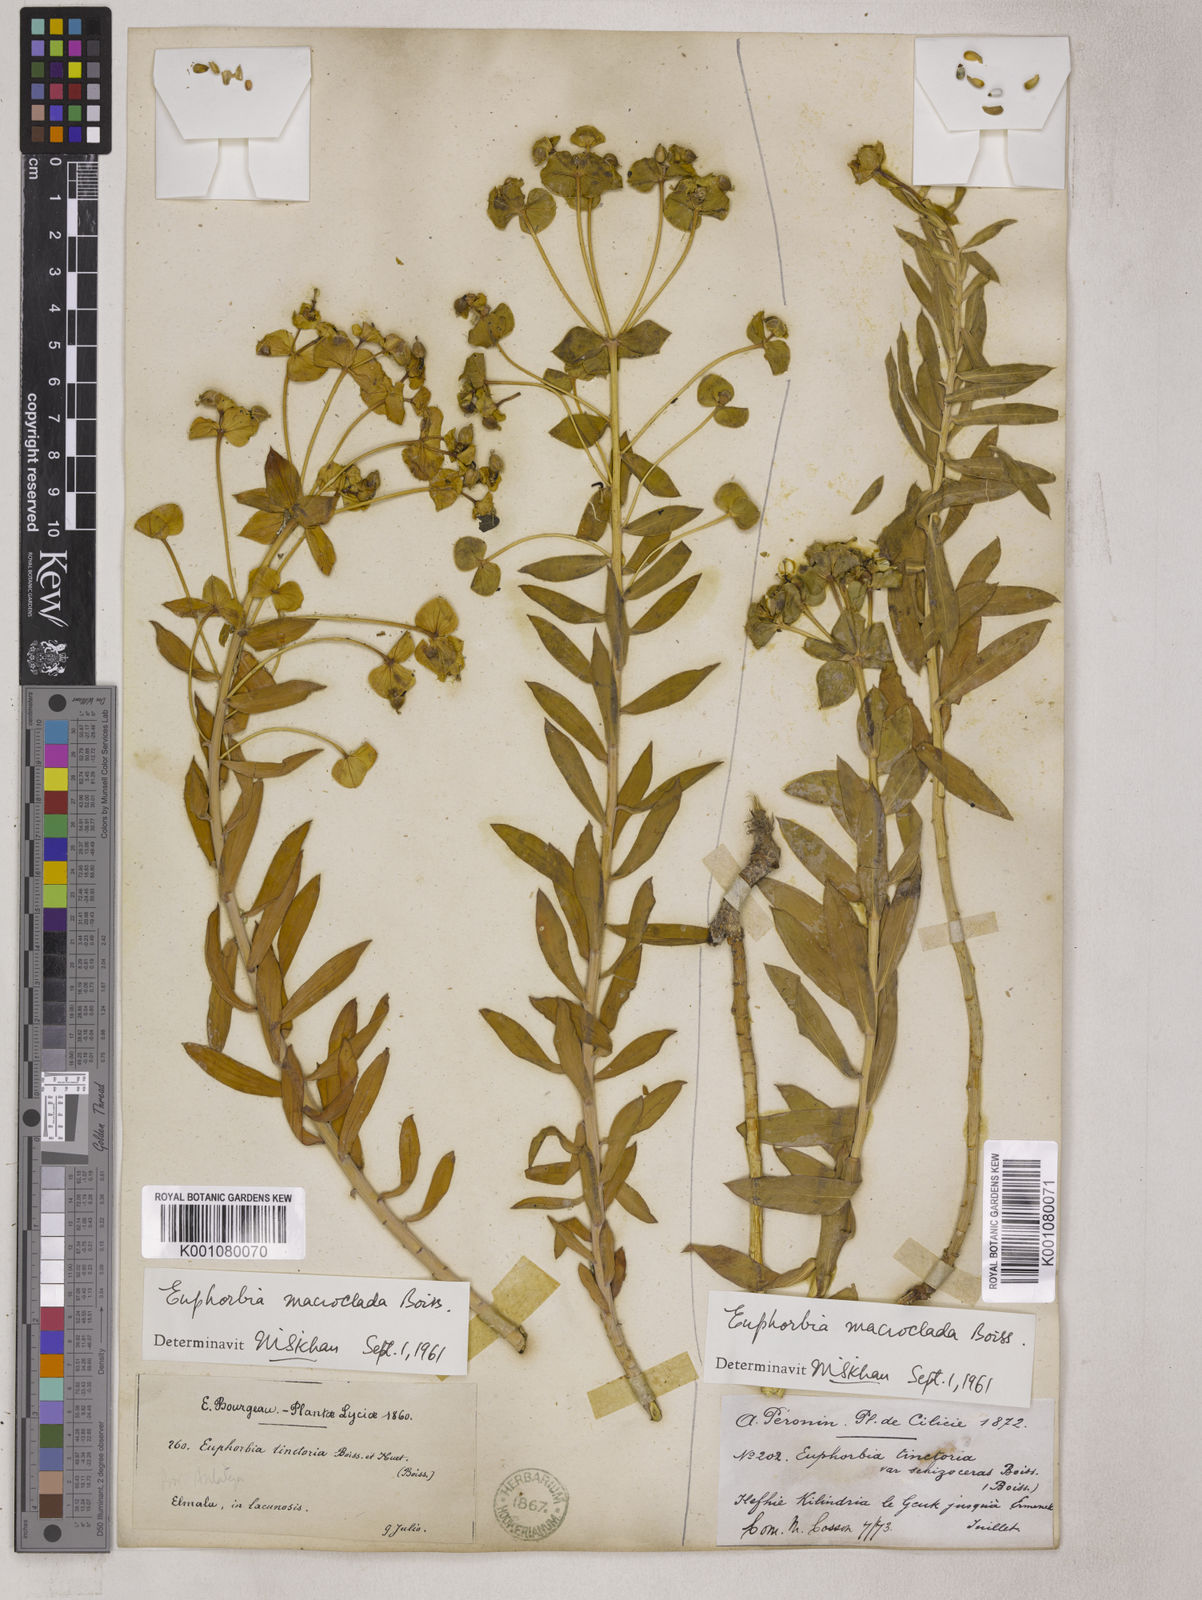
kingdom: Plantae
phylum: Tracheophyta
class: Magnoliopsida
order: Malpighiales
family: Euphorbiaceae
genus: Euphorbia
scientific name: Euphorbia macroclada
